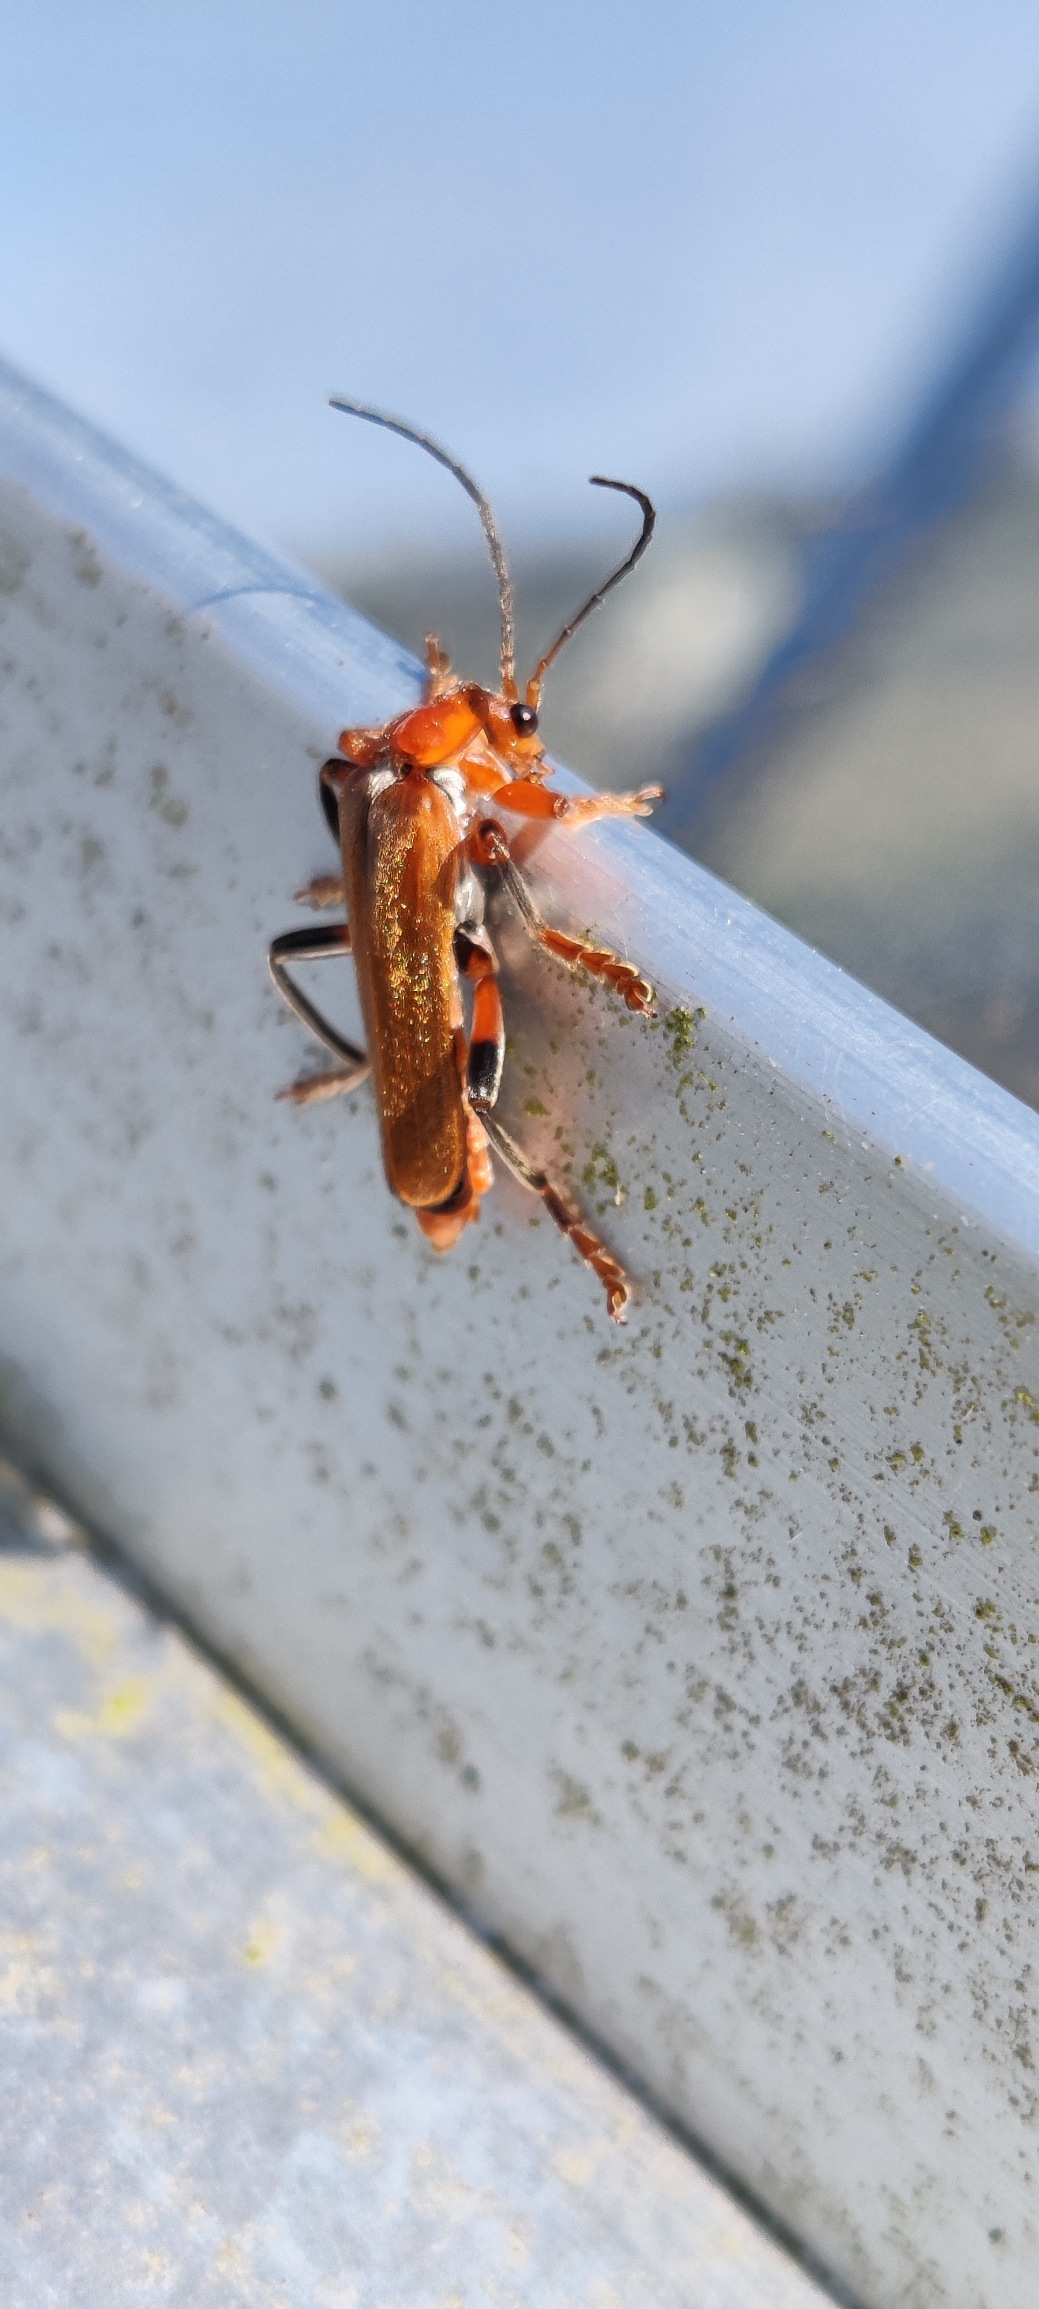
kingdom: Animalia
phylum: Arthropoda
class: Insecta
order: Coleoptera
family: Cantharidae
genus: Cantharis
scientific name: Cantharis livida
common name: Gul blødvinge
